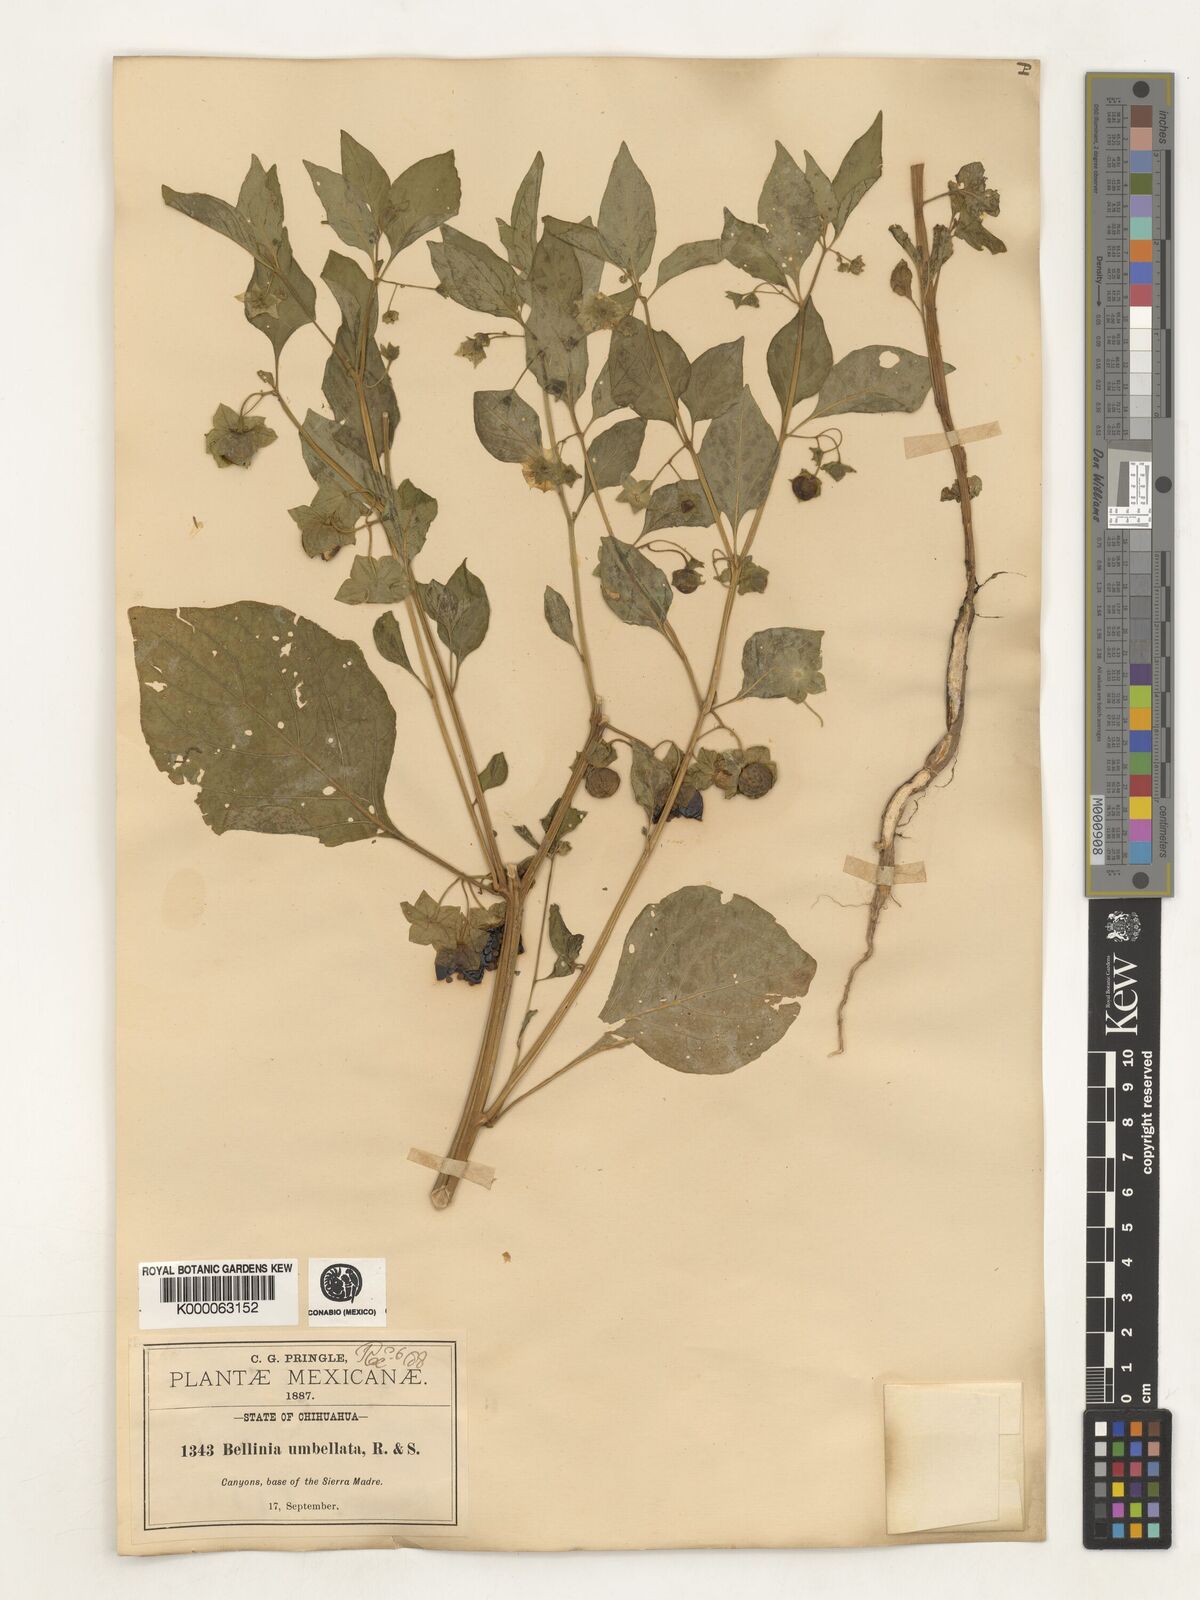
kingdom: Plantae
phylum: Tracheophyta
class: Magnoliopsida
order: Solanales
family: Solanaceae
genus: Saracha
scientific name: Saracha
